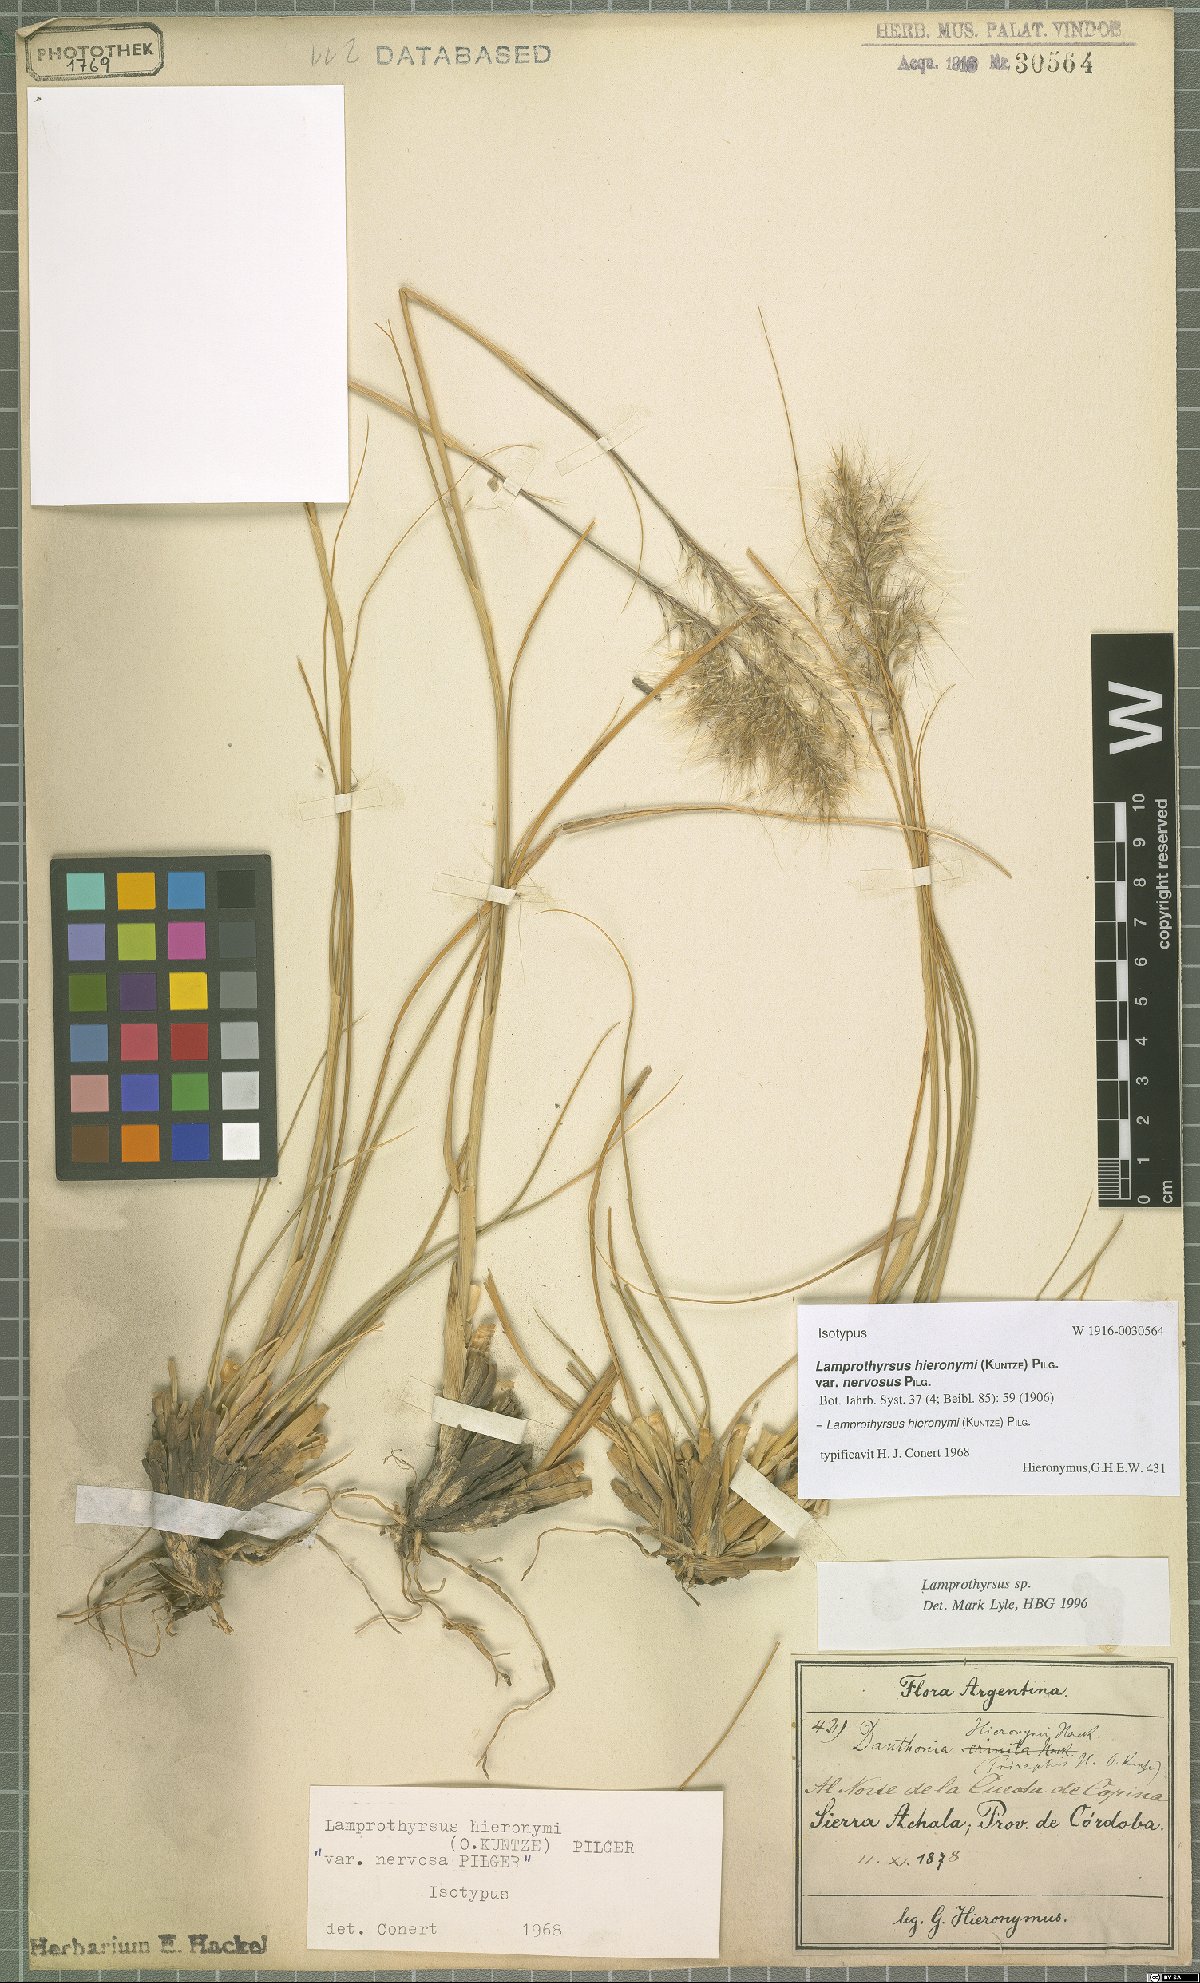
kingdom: Plantae
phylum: Tracheophyta
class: Liliopsida
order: Poales
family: Poaceae
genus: Cortaderia
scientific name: Cortaderia hieronymi
